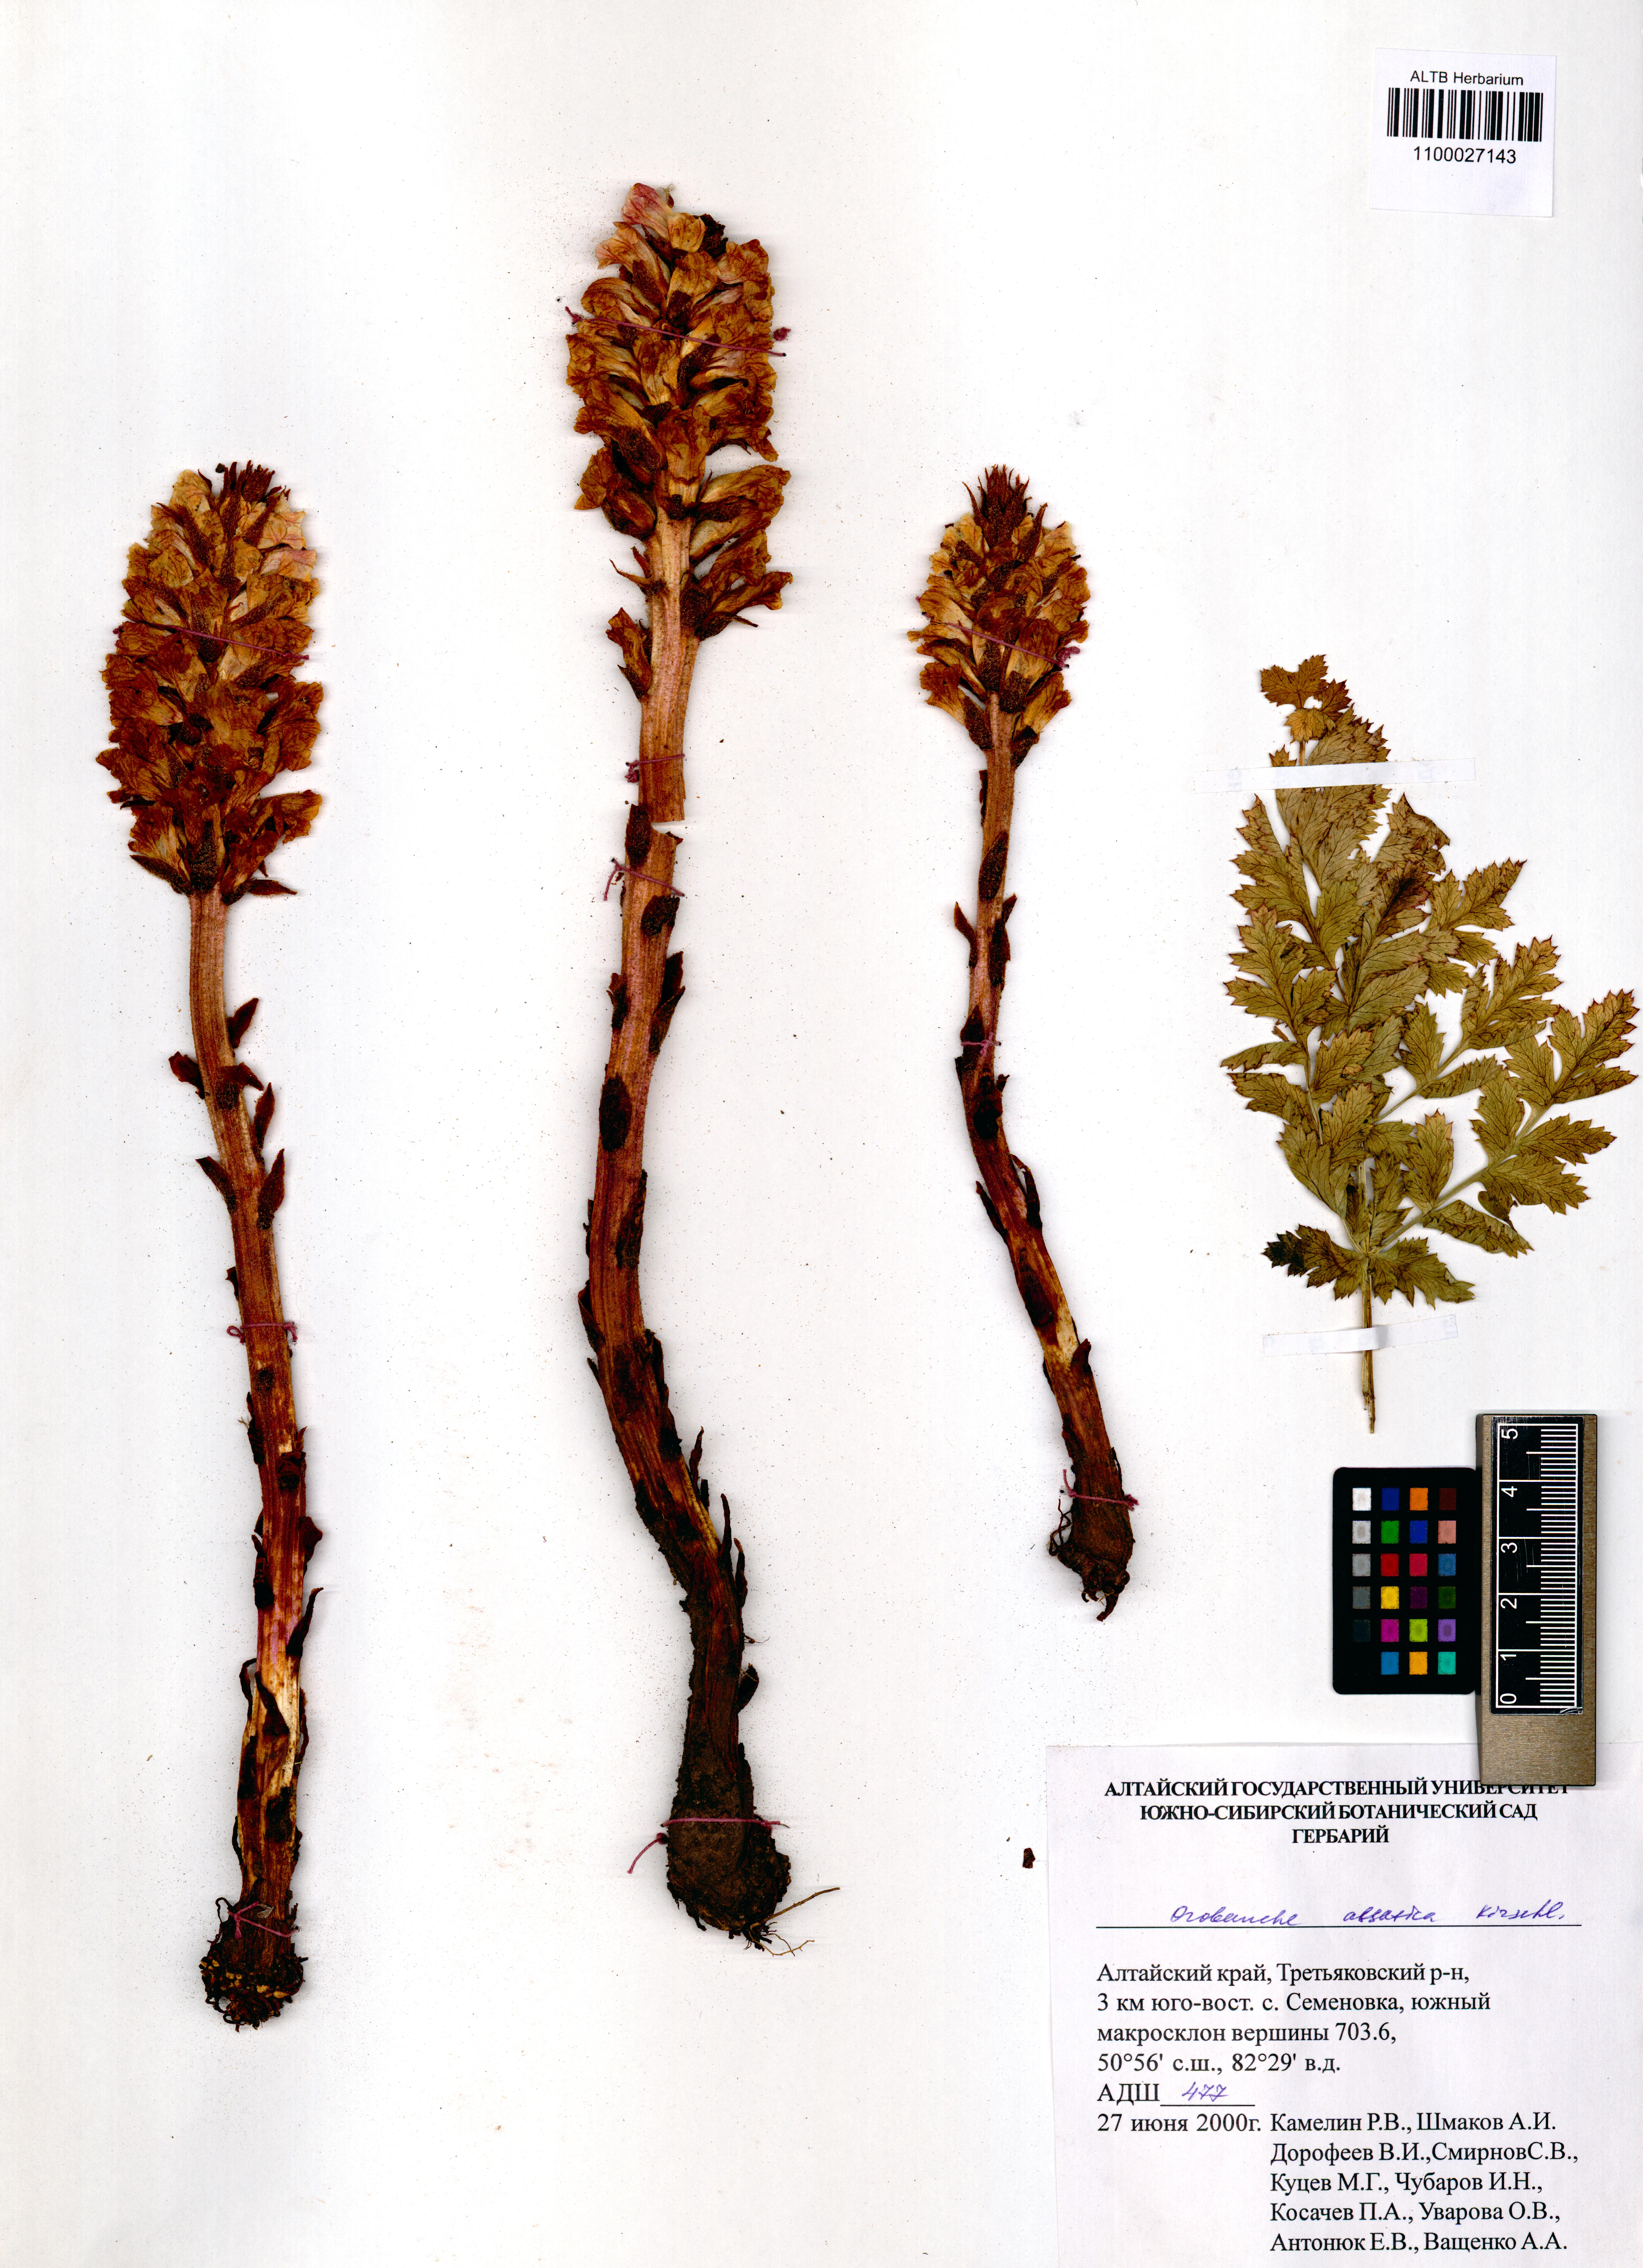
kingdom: Plantae
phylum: Tracheophyta
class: Magnoliopsida
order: Lamiales
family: Orobanchaceae
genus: Orobanche
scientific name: Orobanche alsatica
